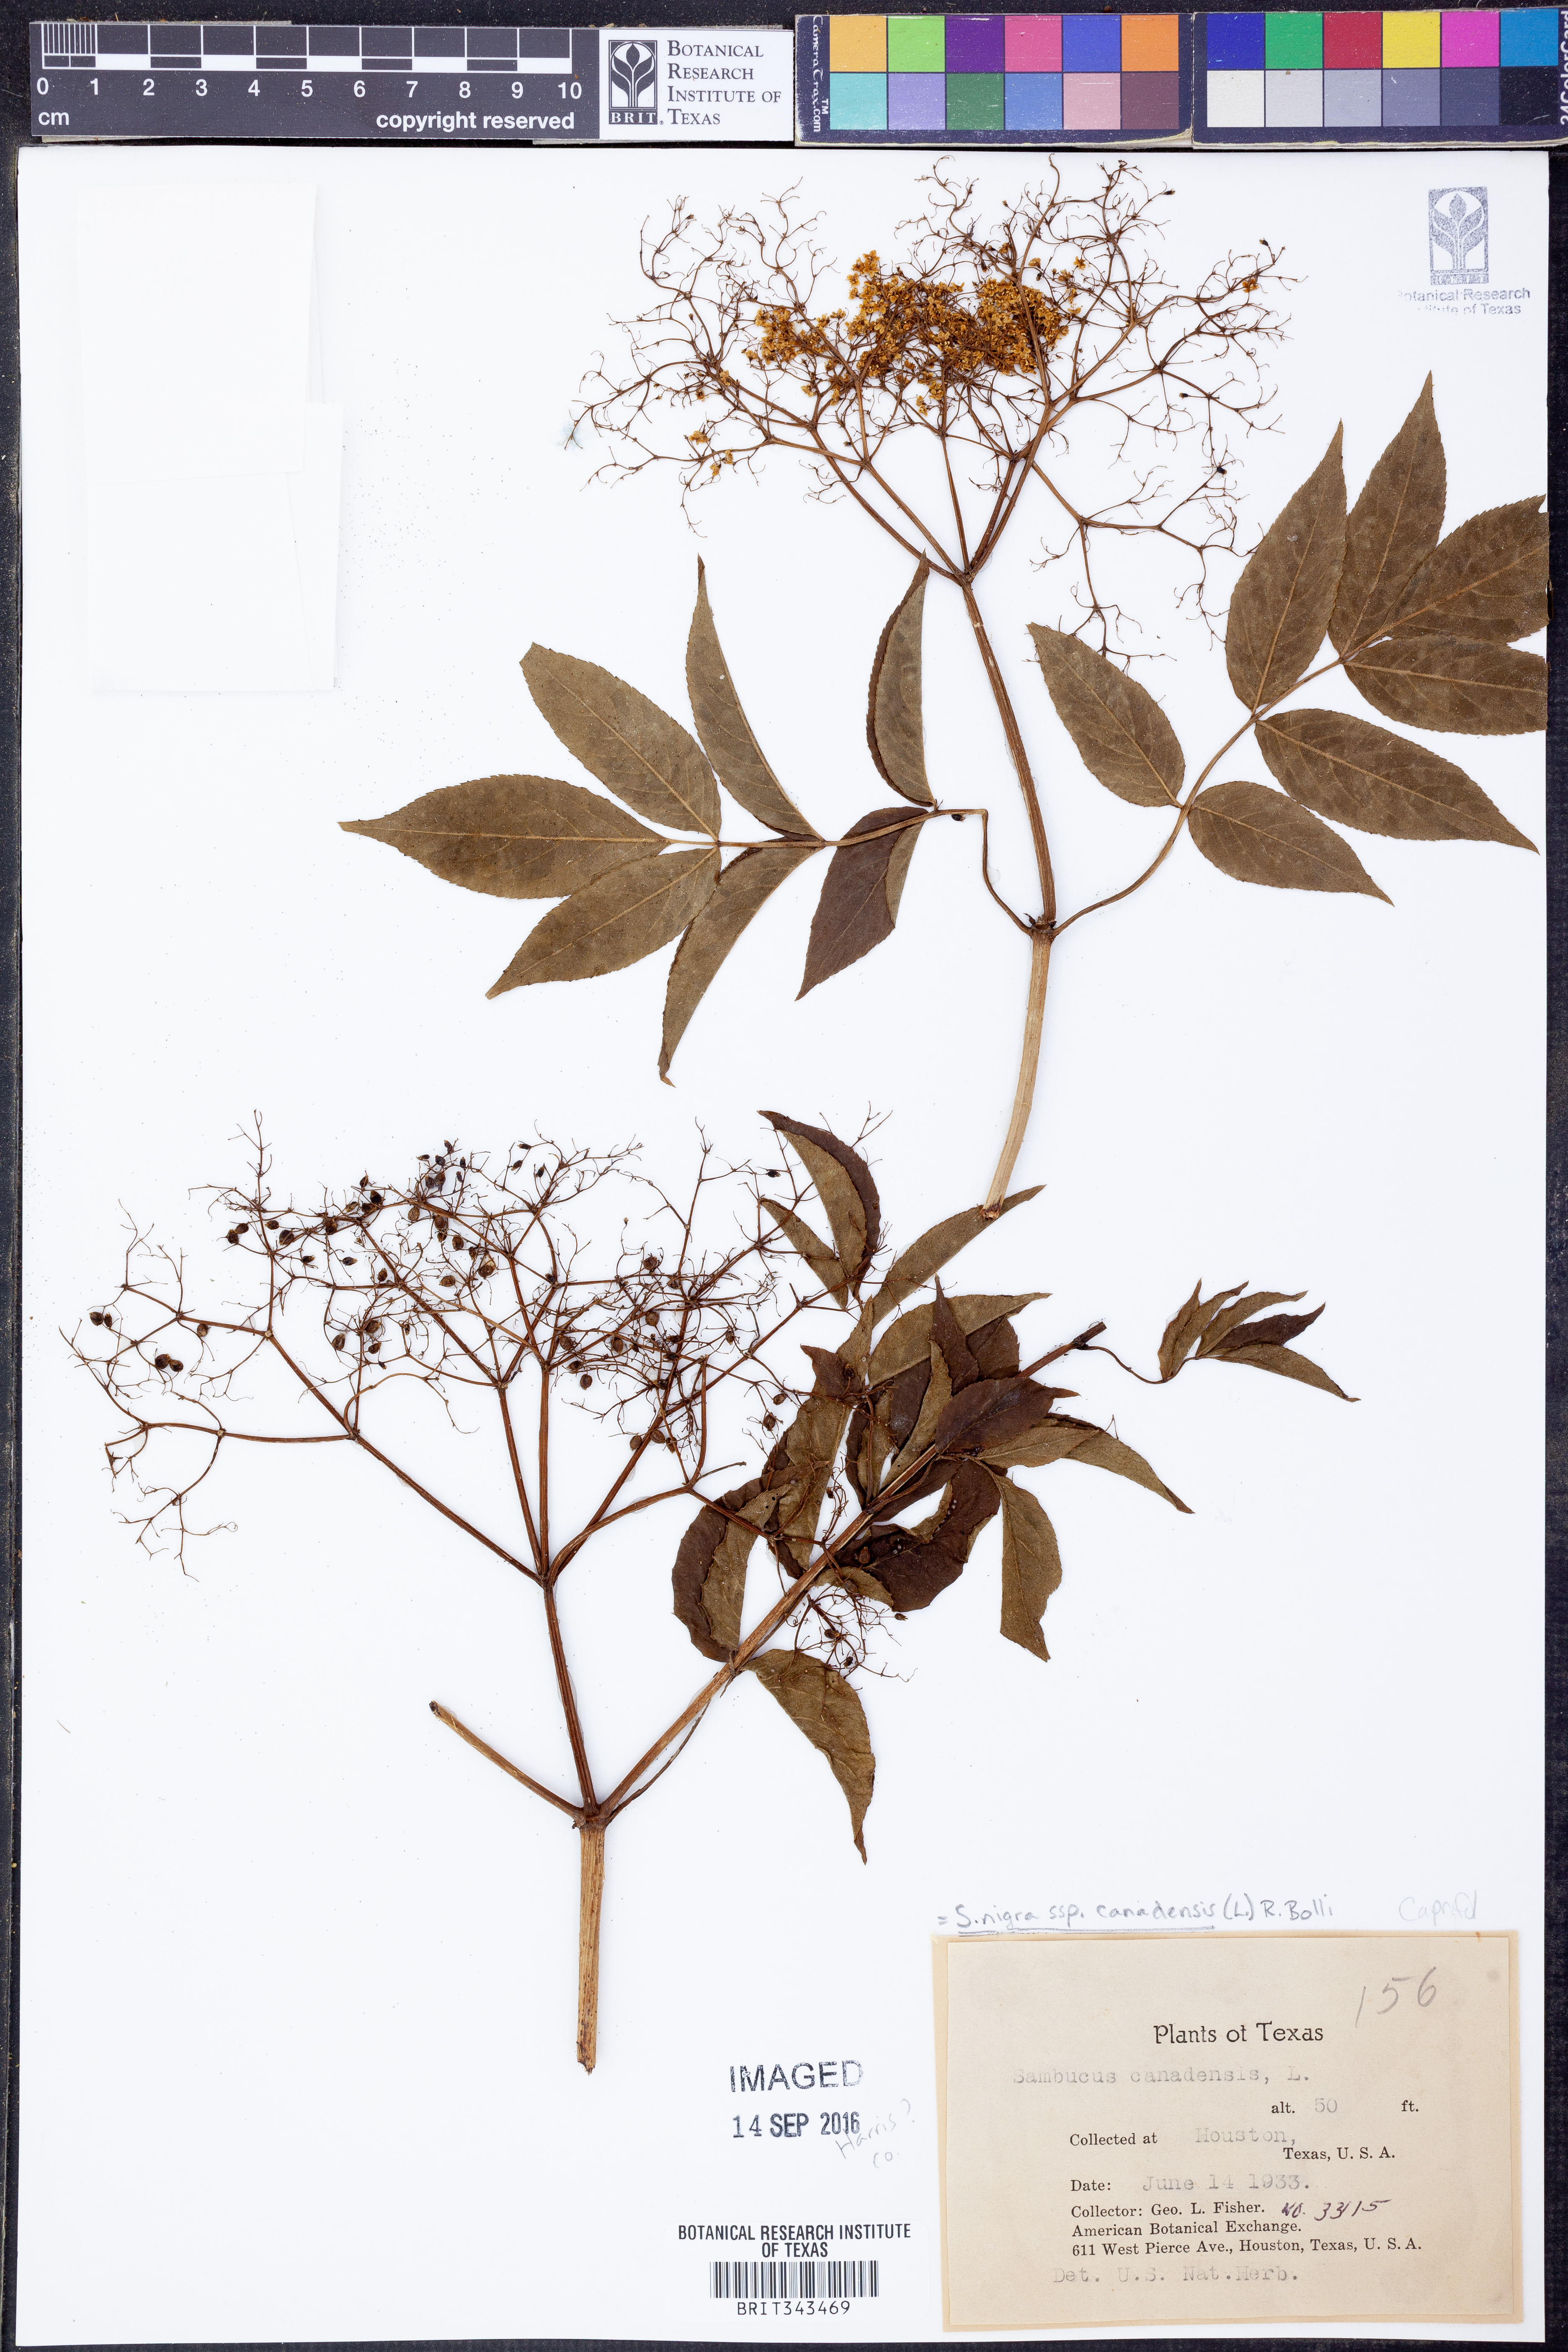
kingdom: Plantae
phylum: Tracheophyta
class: Magnoliopsida
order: Dipsacales
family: Viburnaceae
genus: Sambucus
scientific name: Sambucus canadensis
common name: American elder
